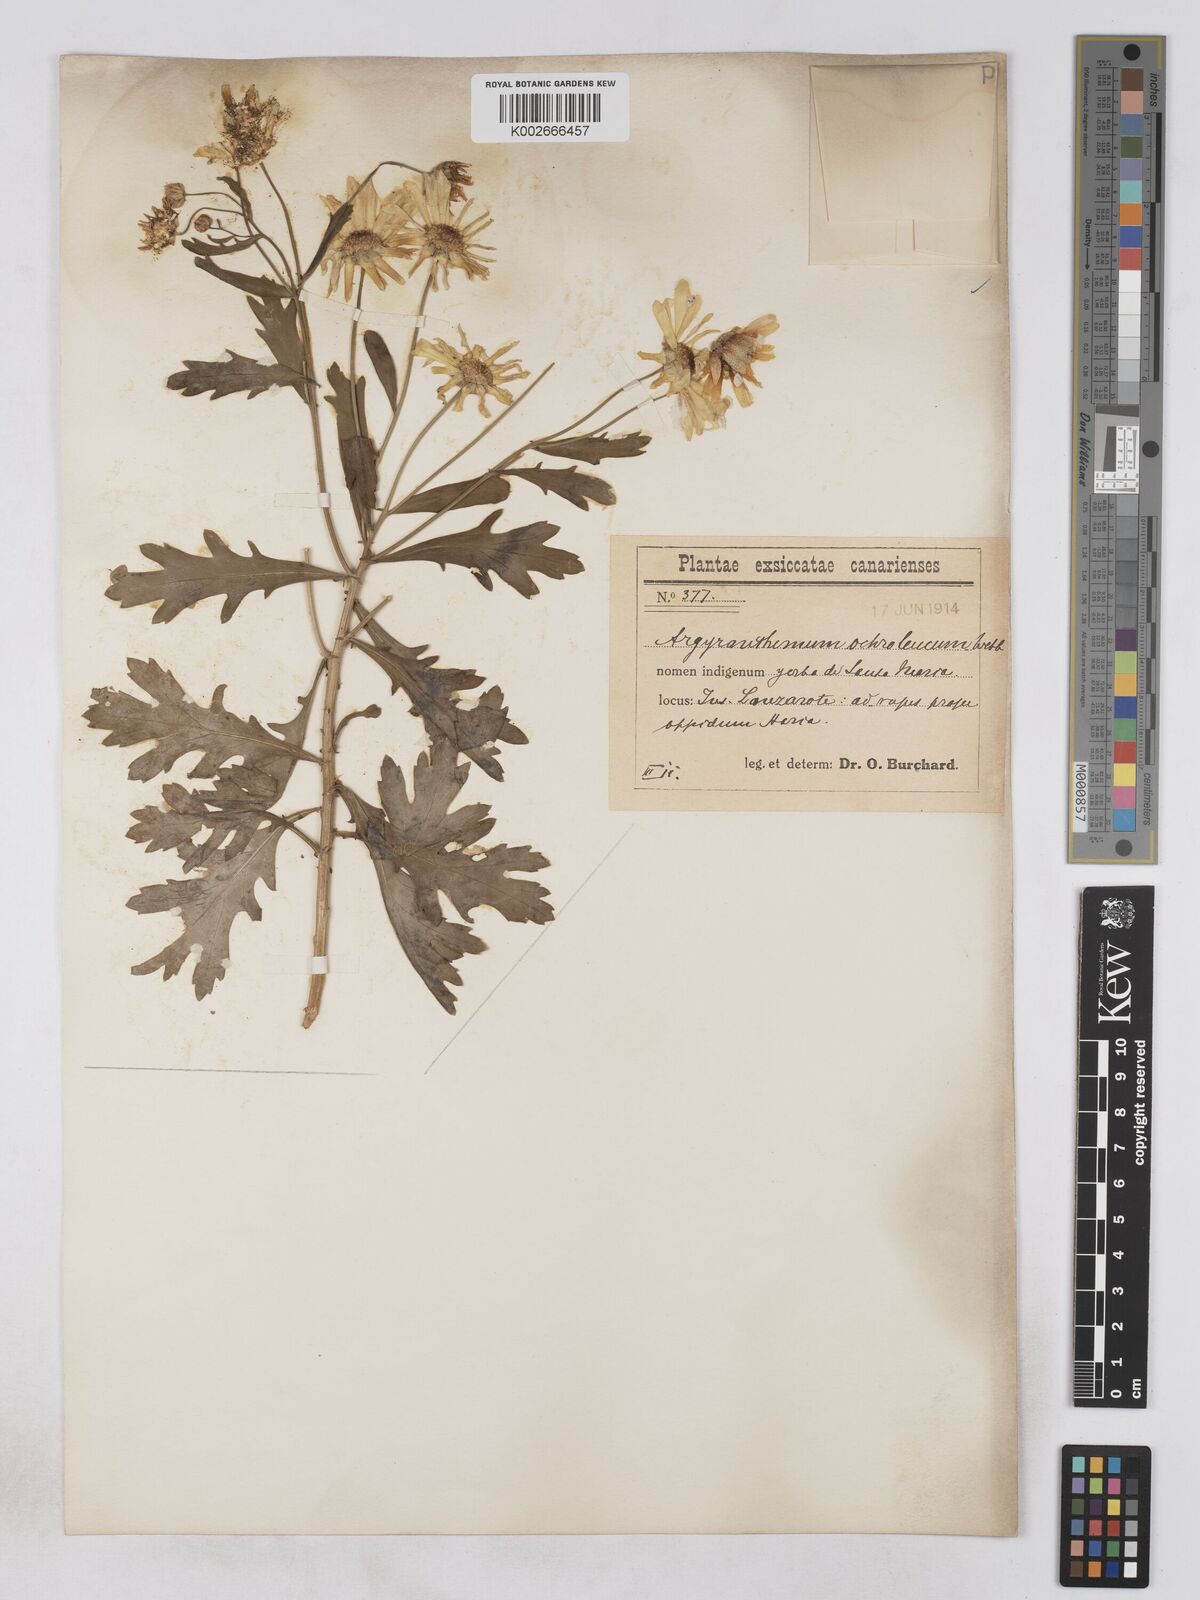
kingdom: Plantae
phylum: Tracheophyta
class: Magnoliopsida
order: Asterales
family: Asteraceae
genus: Argyranthemum
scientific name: Argyranthemum maderense
